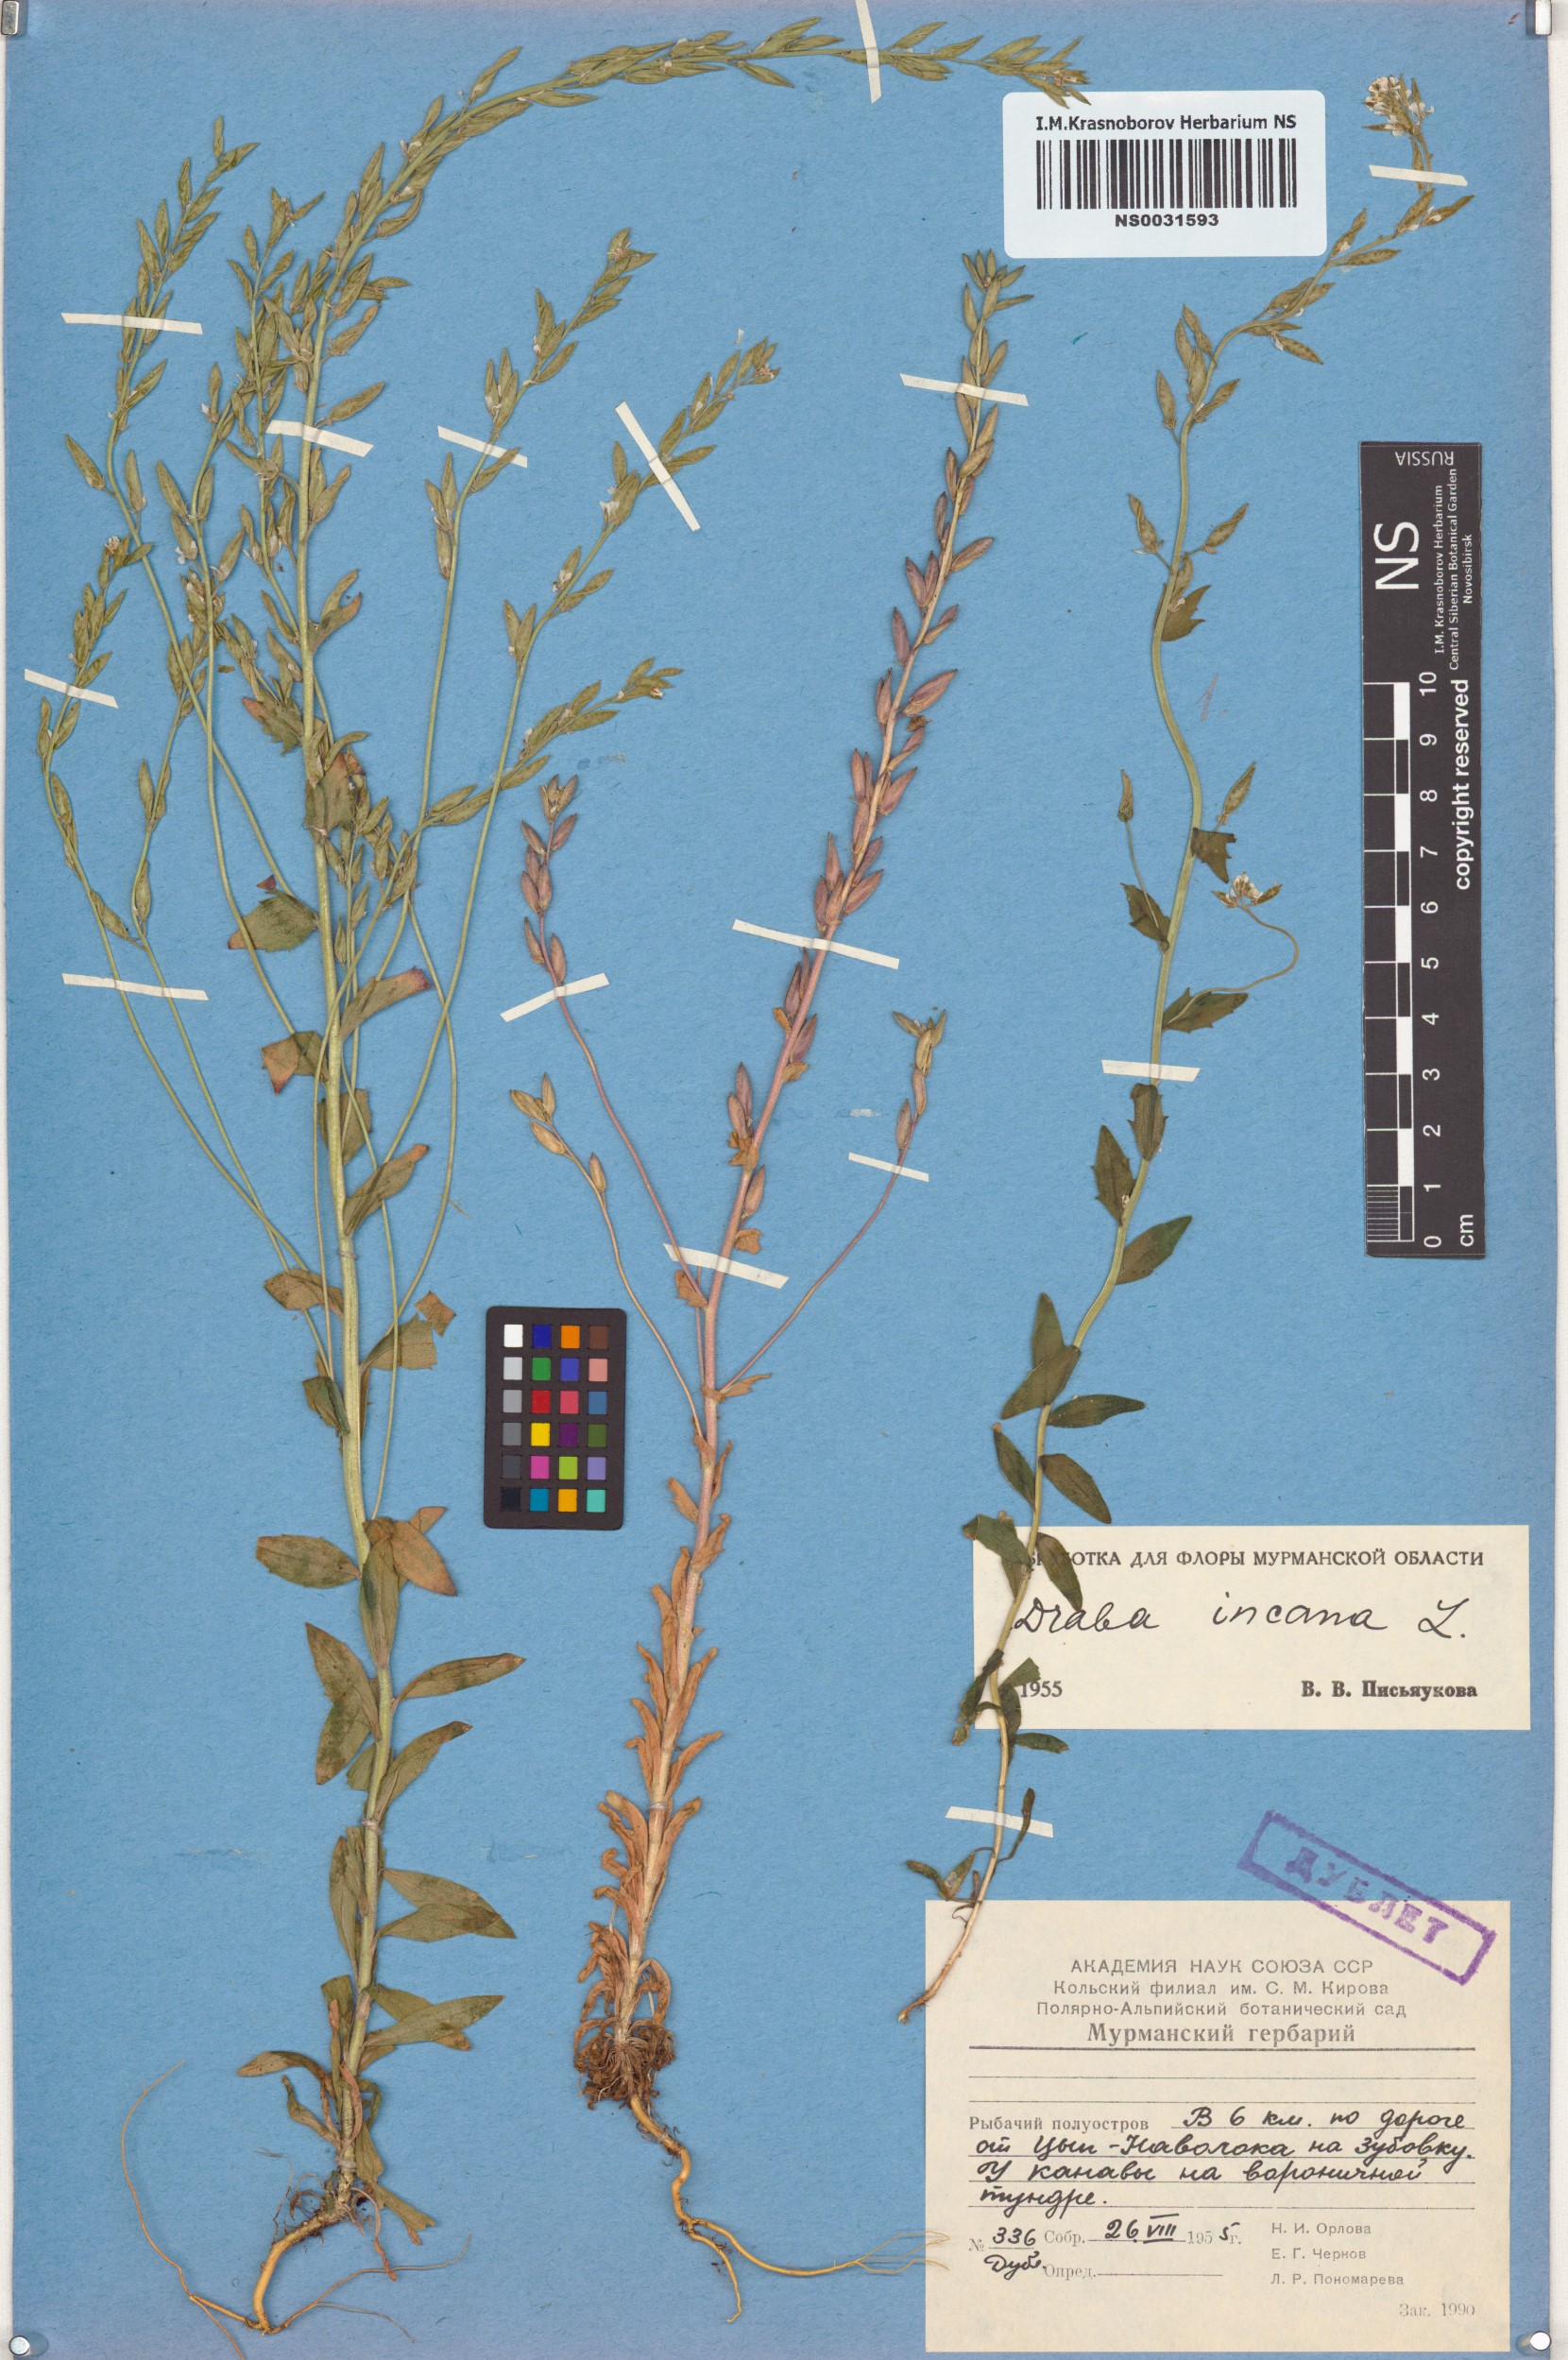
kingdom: Plantae
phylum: Tracheophyta
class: Magnoliopsida
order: Brassicales
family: Brassicaceae
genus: Draba
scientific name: Draba incana
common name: Hoary whitlow-grass
